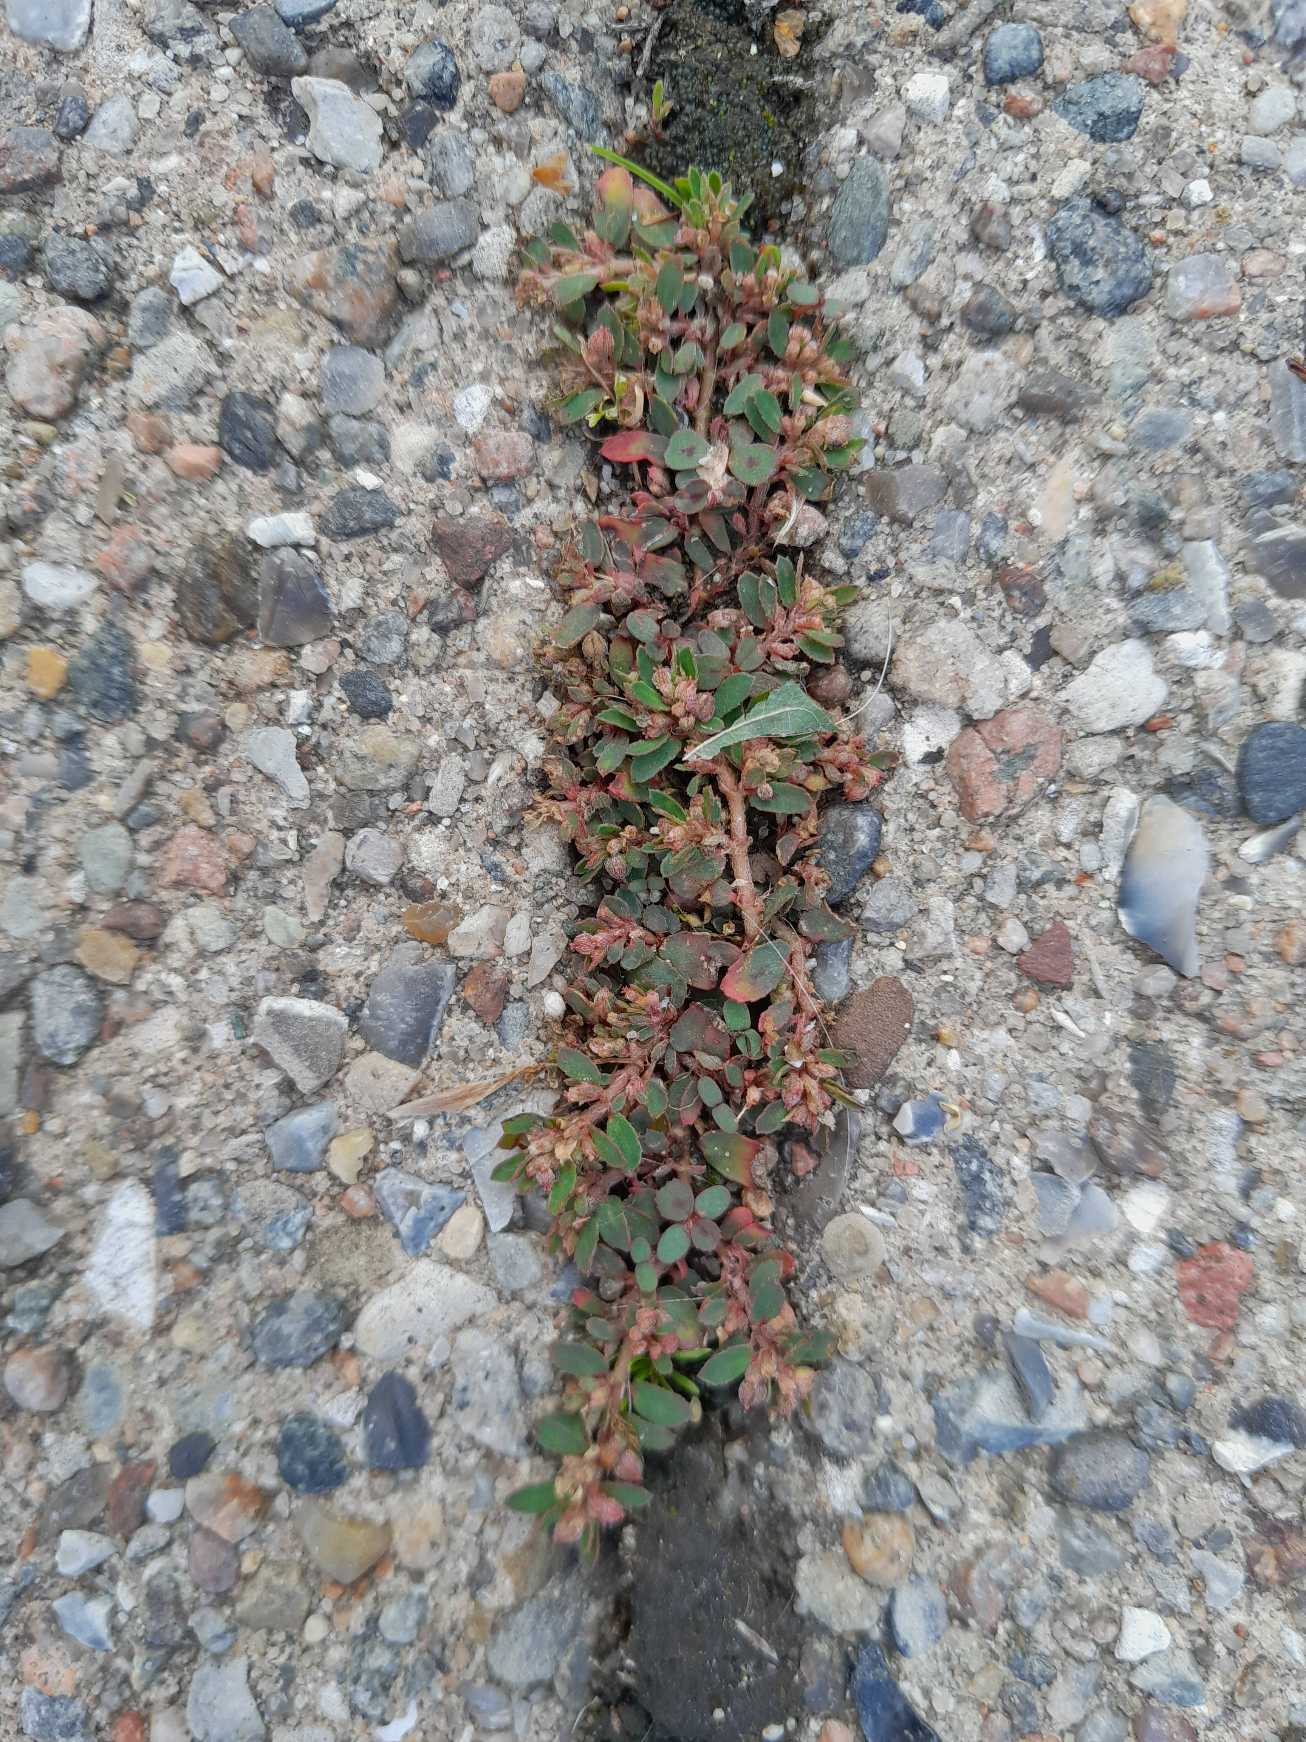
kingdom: Plantae
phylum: Tracheophyta
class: Magnoliopsida
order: Malpighiales
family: Euphorbiaceae
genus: Euphorbia
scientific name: Euphorbia maculata
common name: Plet-vortemælk
